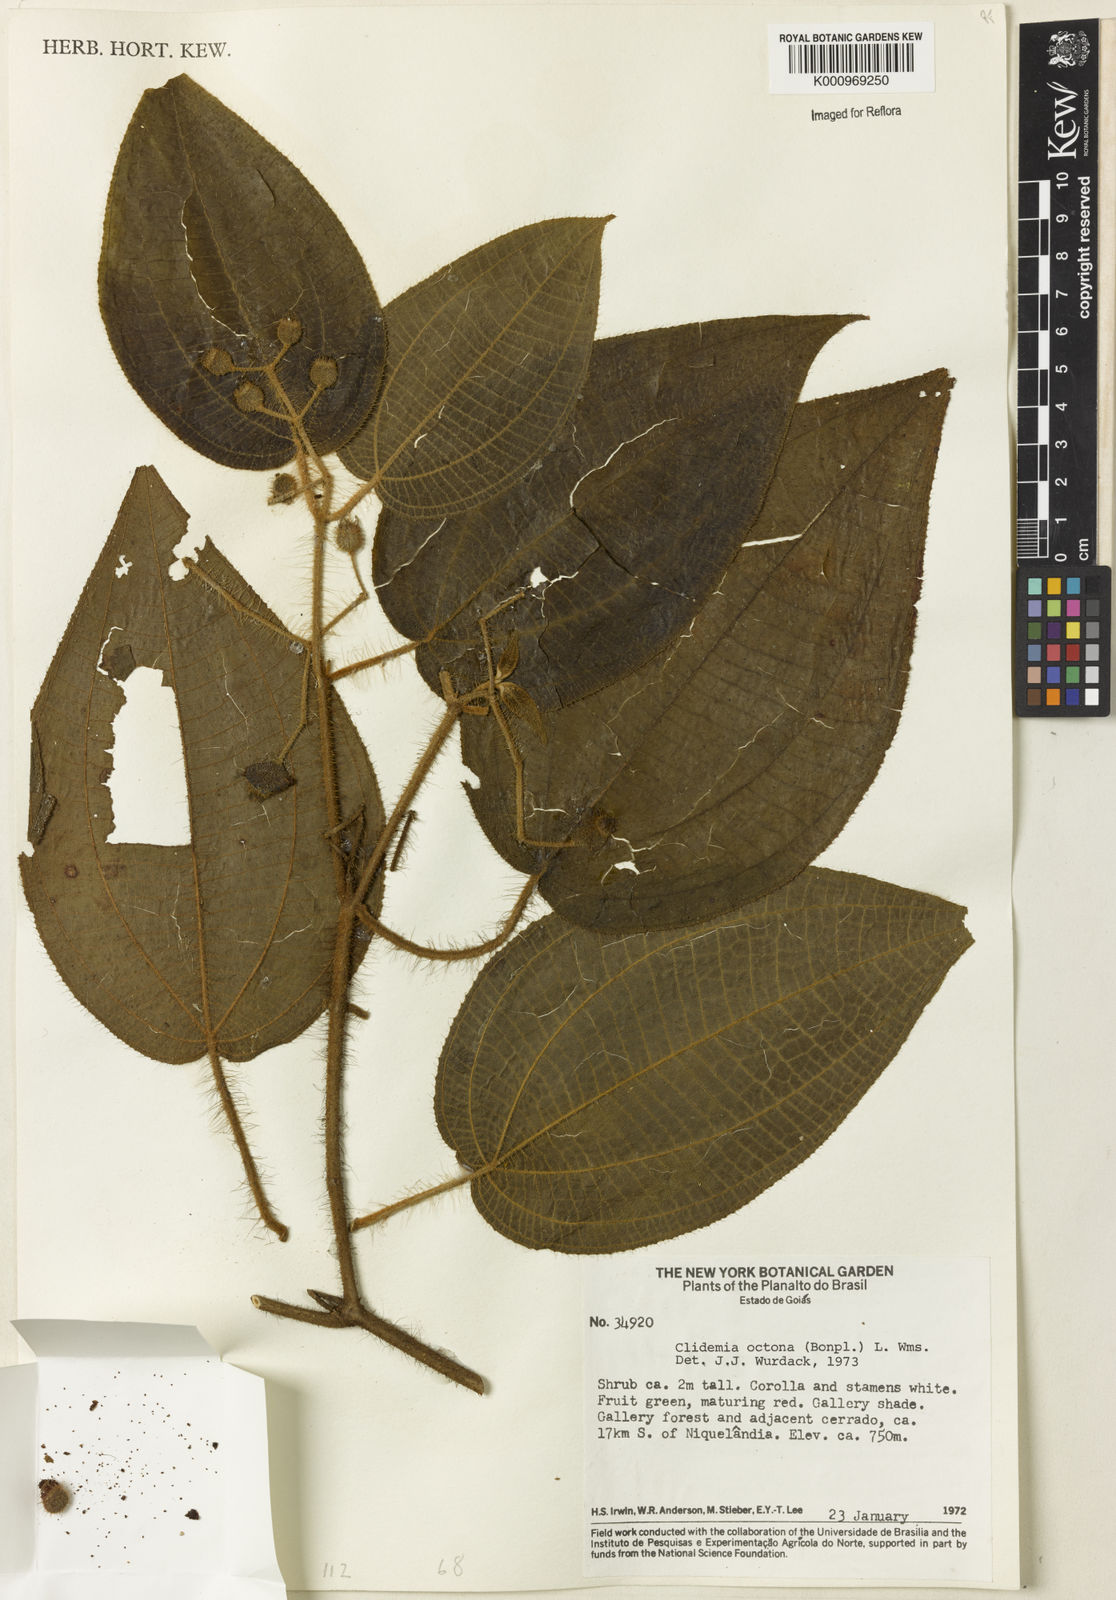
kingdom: Plantae
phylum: Tracheophyta
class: Magnoliopsida
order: Myrtales
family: Melastomataceae
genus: Miconia
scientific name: Miconia octona
